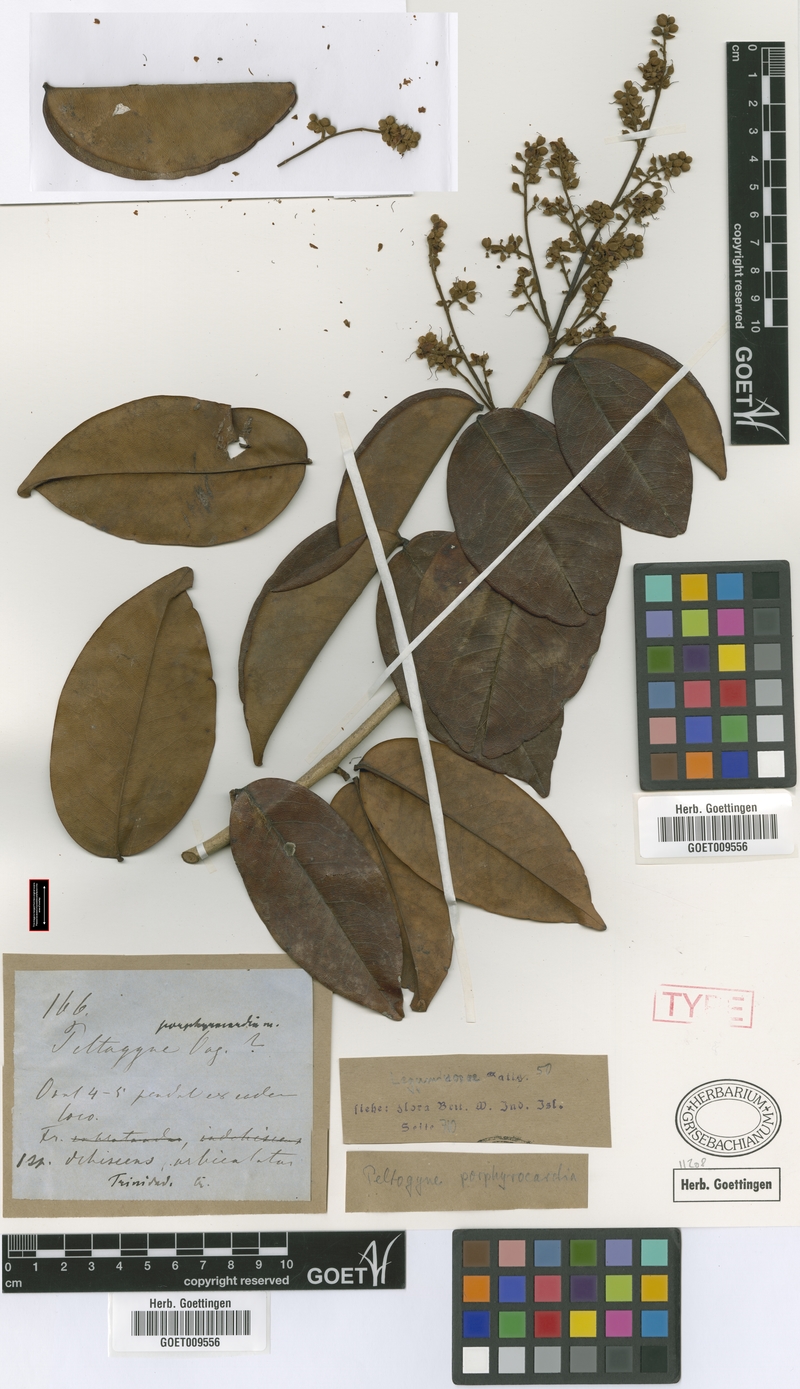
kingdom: Plantae
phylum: Tracheophyta
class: Magnoliopsida
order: Fabales
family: Fabaceae
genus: Peltogyne
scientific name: Peltogyne floribunda
